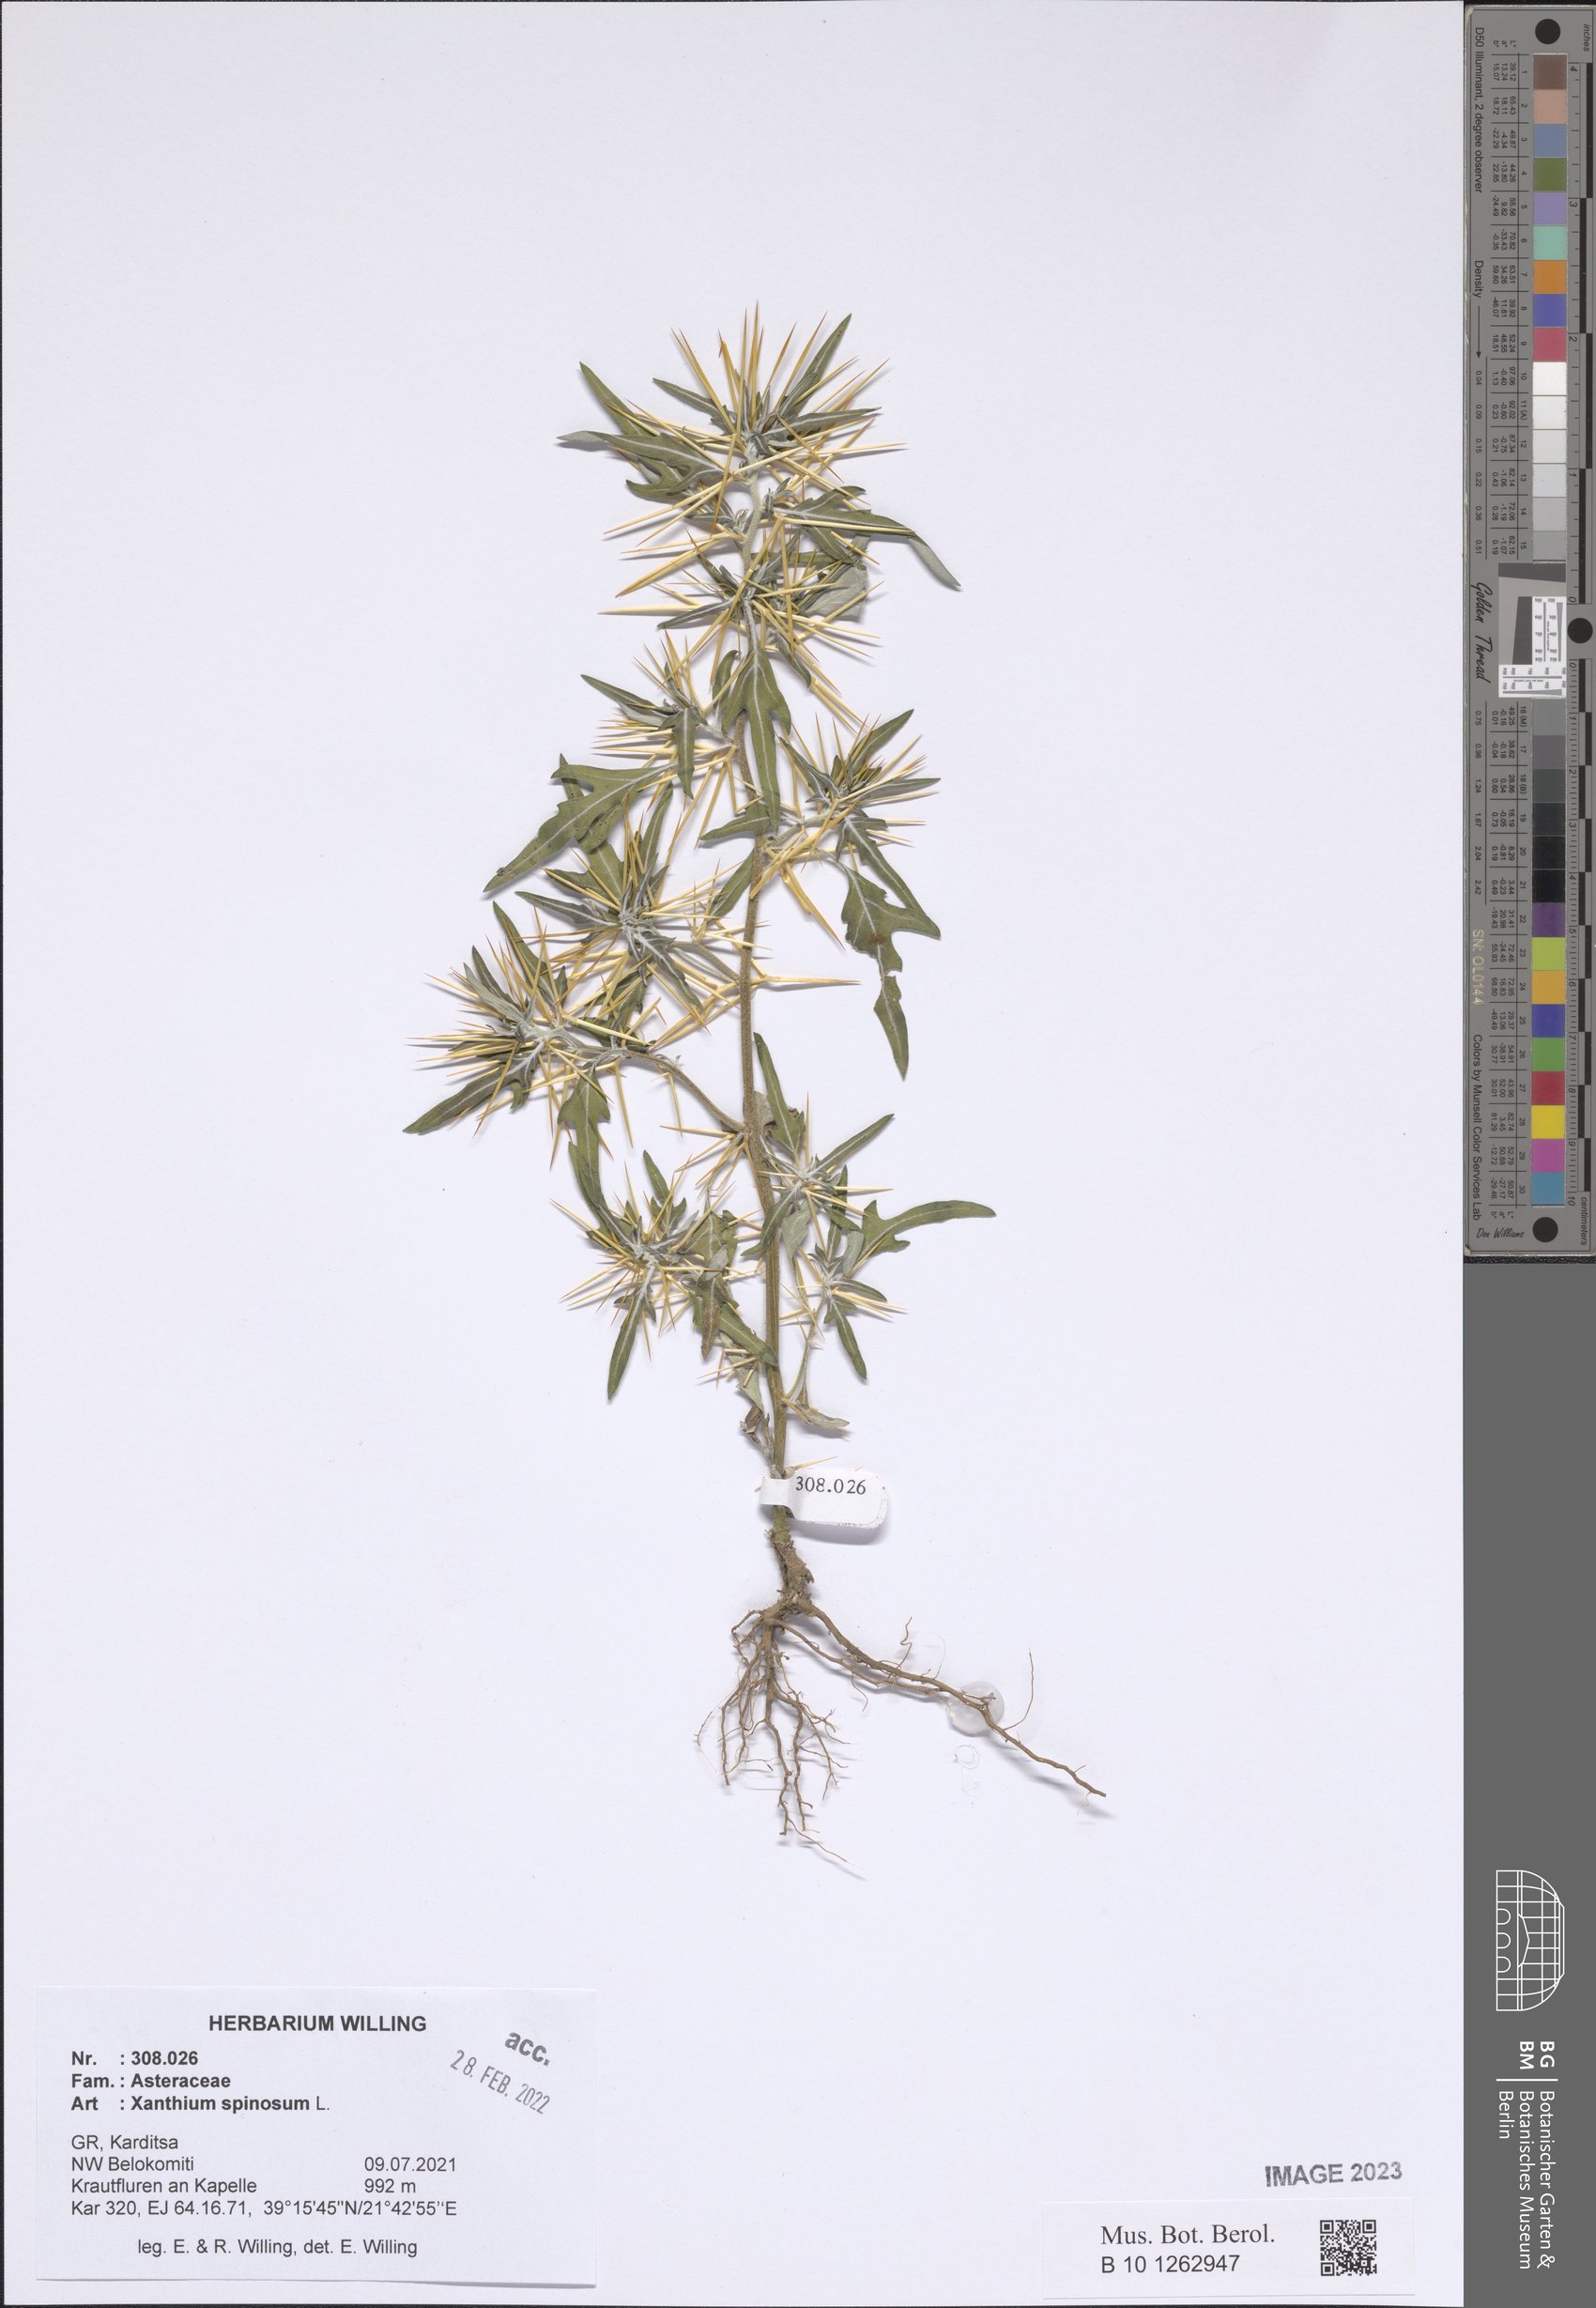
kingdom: Plantae
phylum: Tracheophyta
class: Magnoliopsida
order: Asterales
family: Asteraceae
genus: Xanthium
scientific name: Xanthium spinosum
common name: Spiny cocklebur
